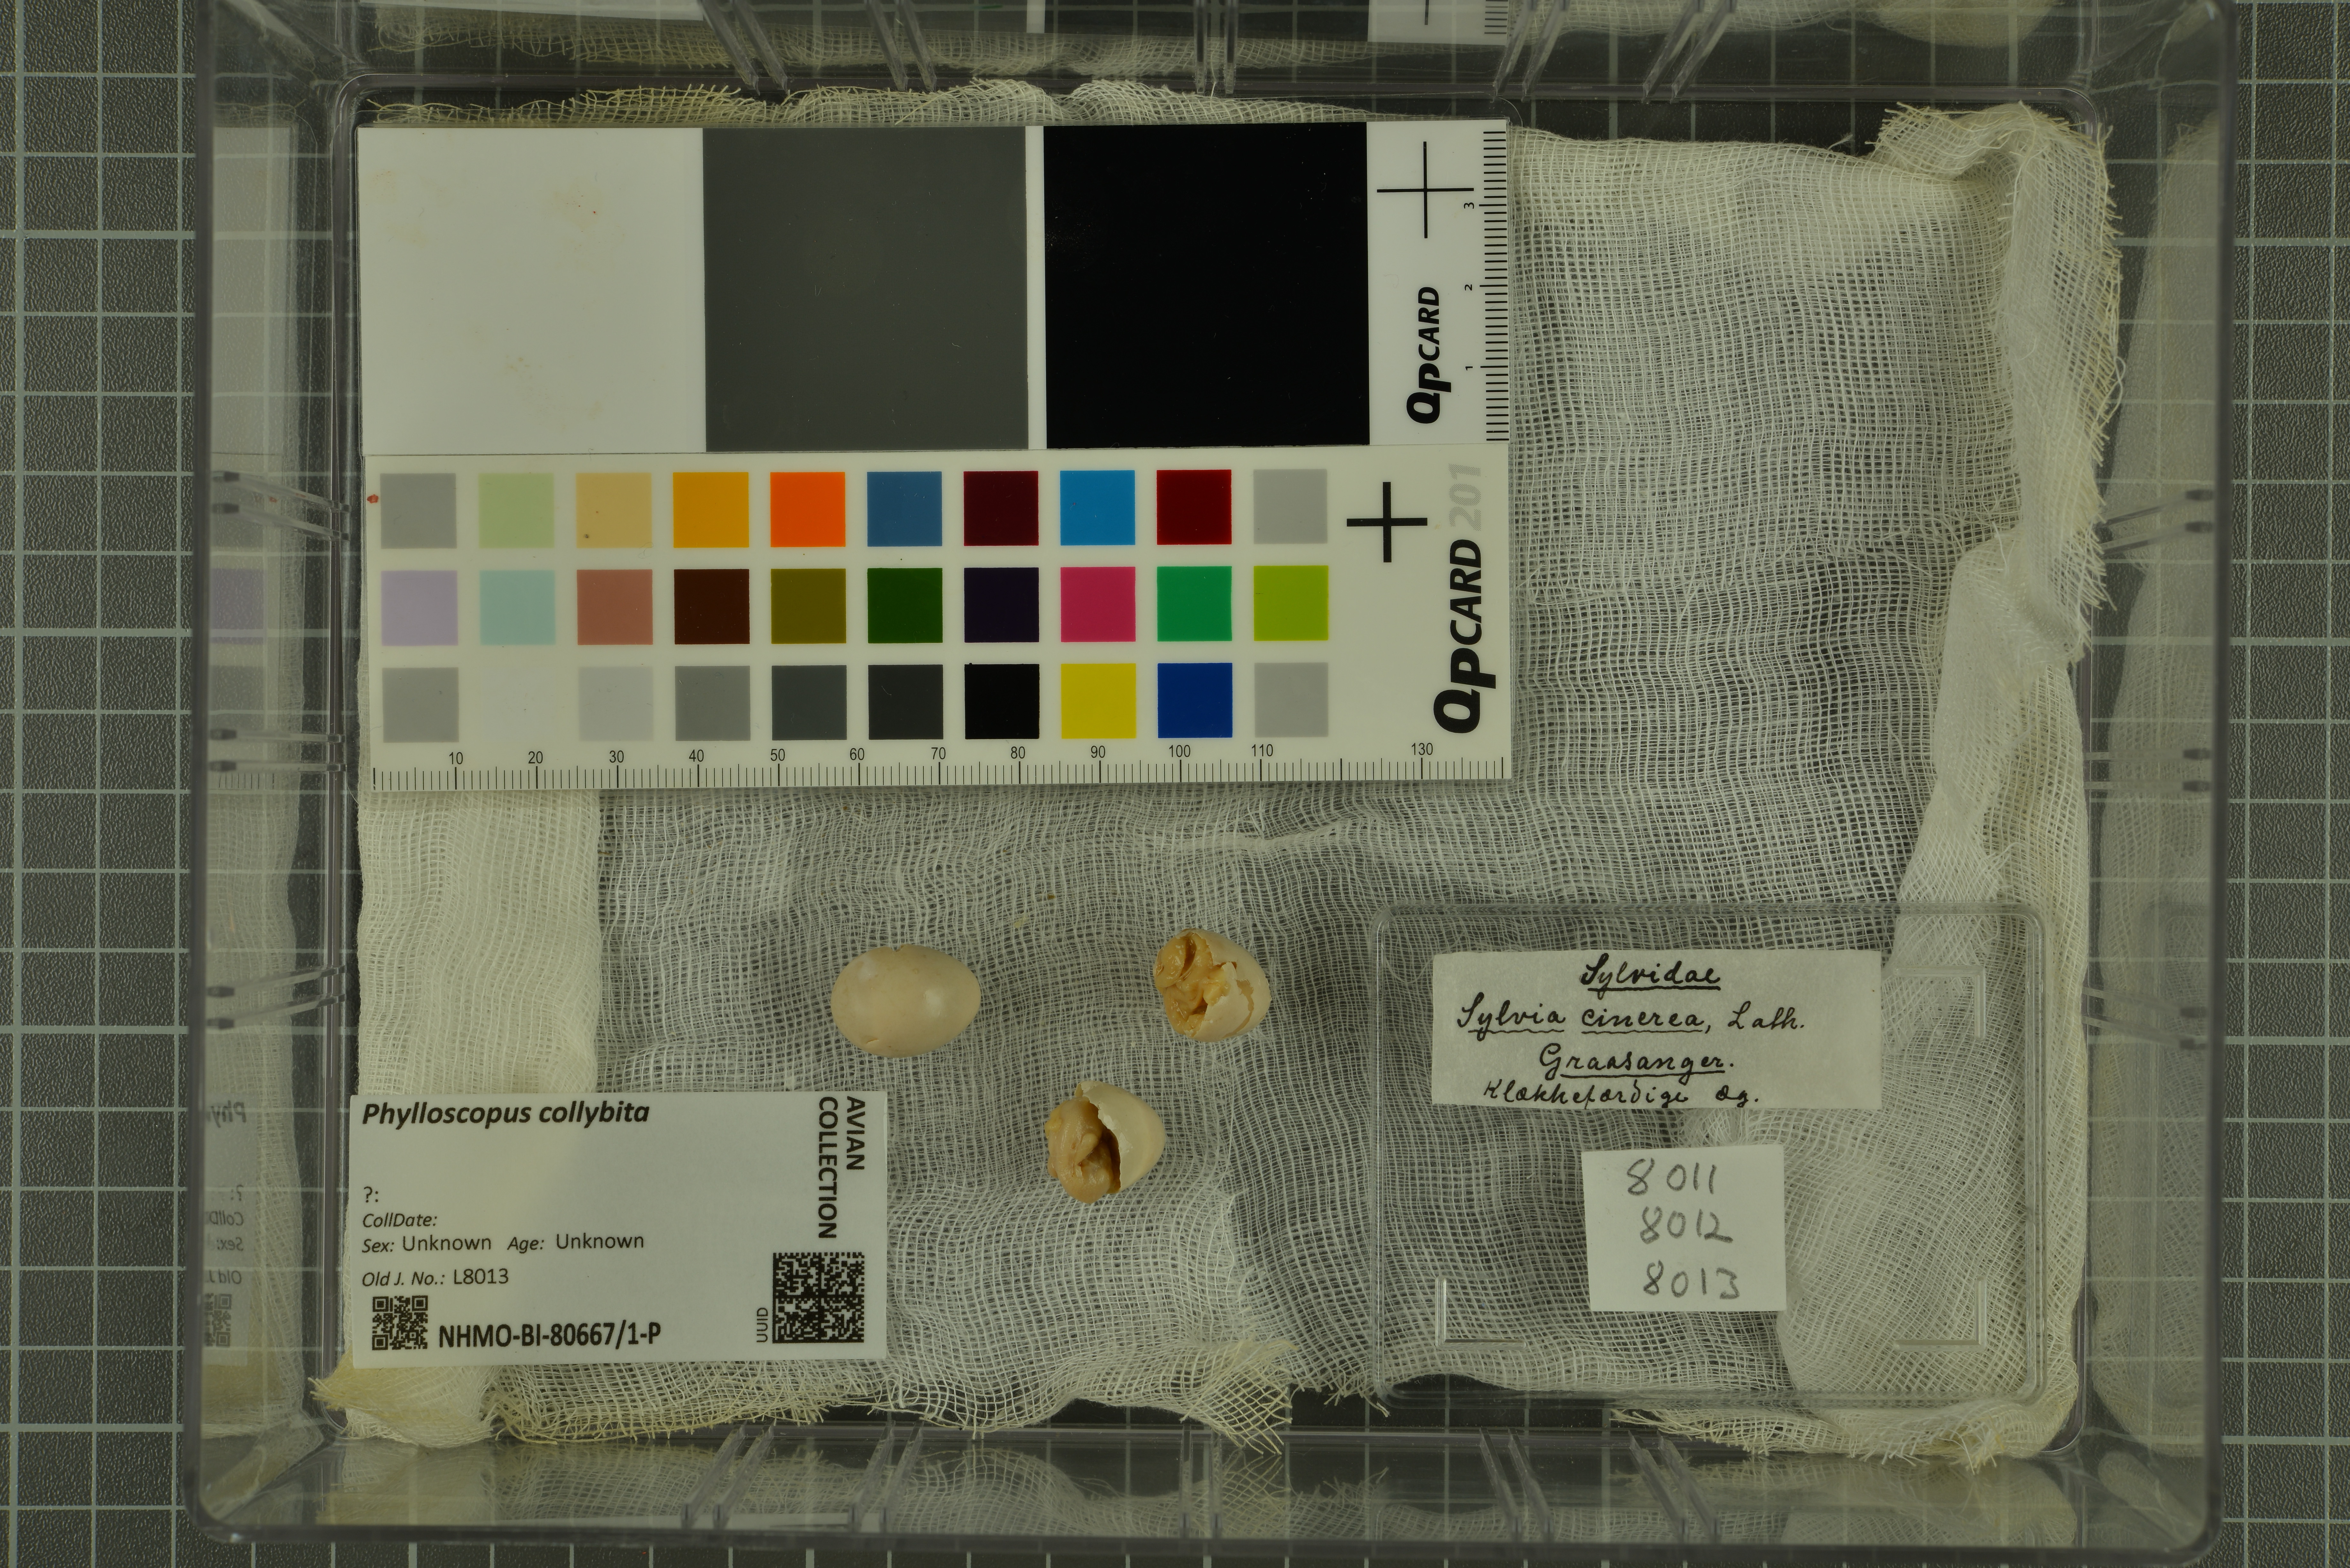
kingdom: Animalia
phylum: Chordata
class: Aves
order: Passeriformes
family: Phylloscopidae
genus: Phylloscopus
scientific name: Phylloscopus collybita
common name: Common chiffchaff
